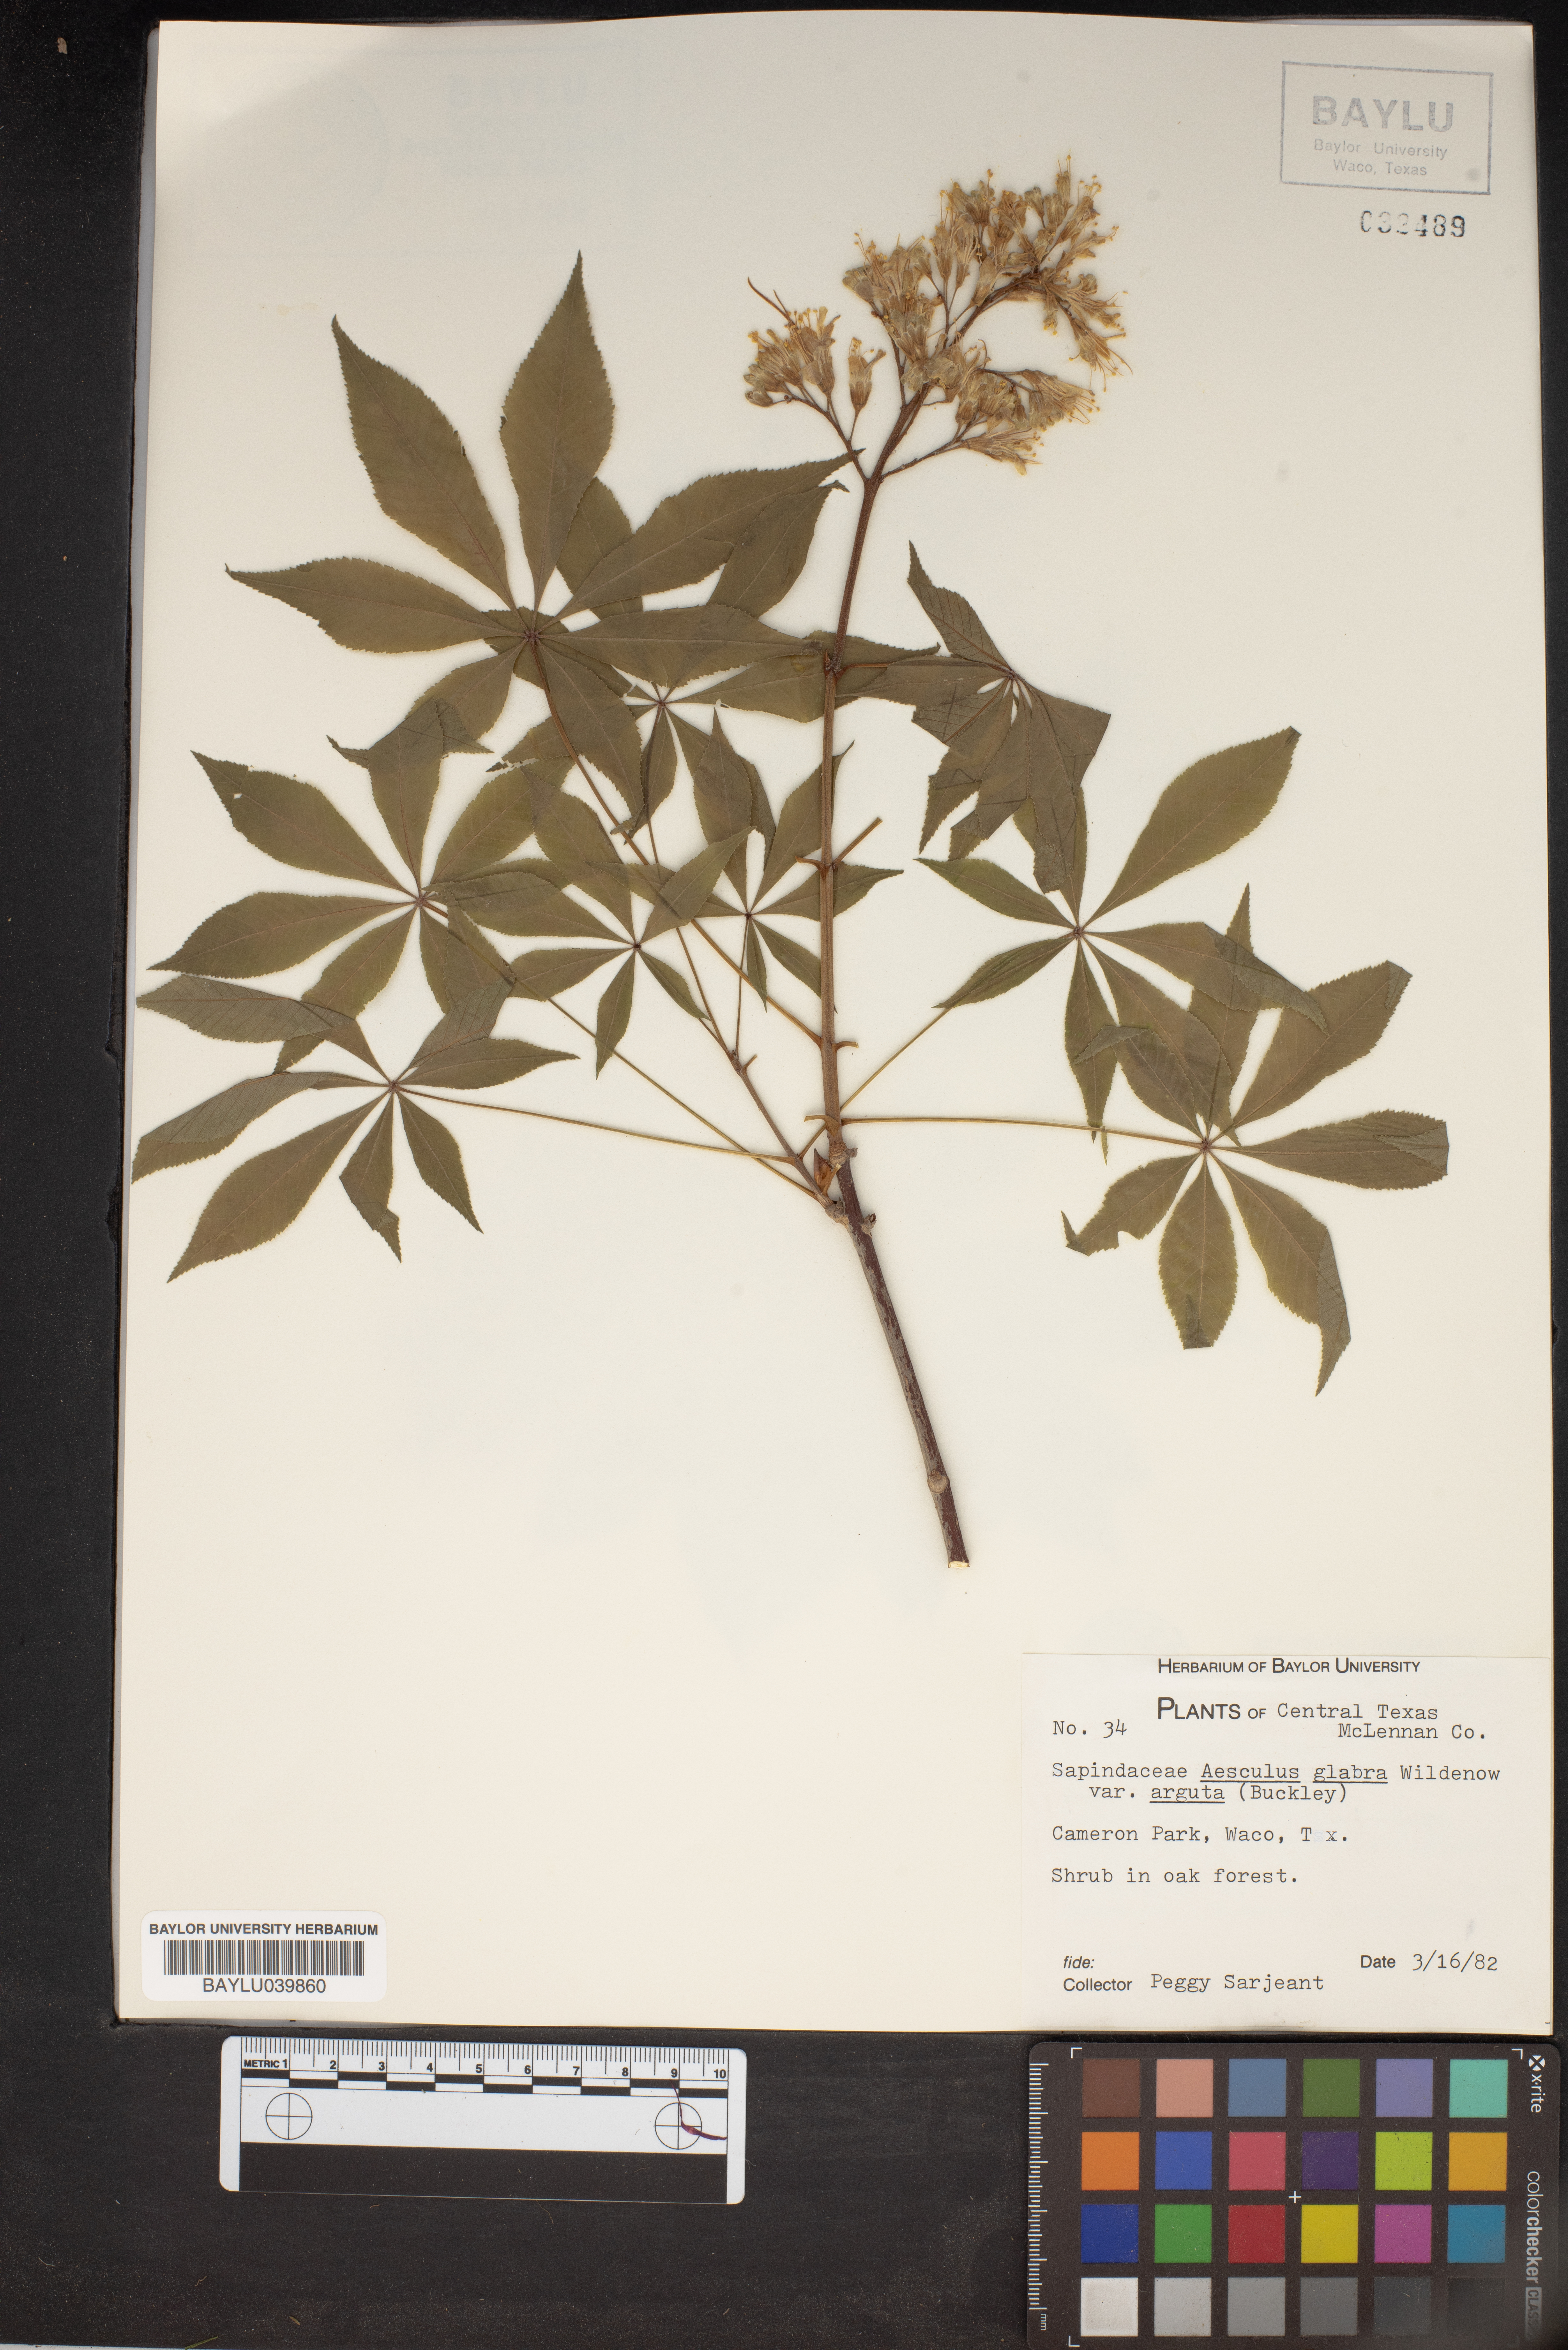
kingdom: Plantae
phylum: Tracheophyta
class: Magnoliopsida
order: Sapindales
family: Sapindaceae
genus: Aesculus
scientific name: Aesculus glabra
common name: Ohio buckeye
